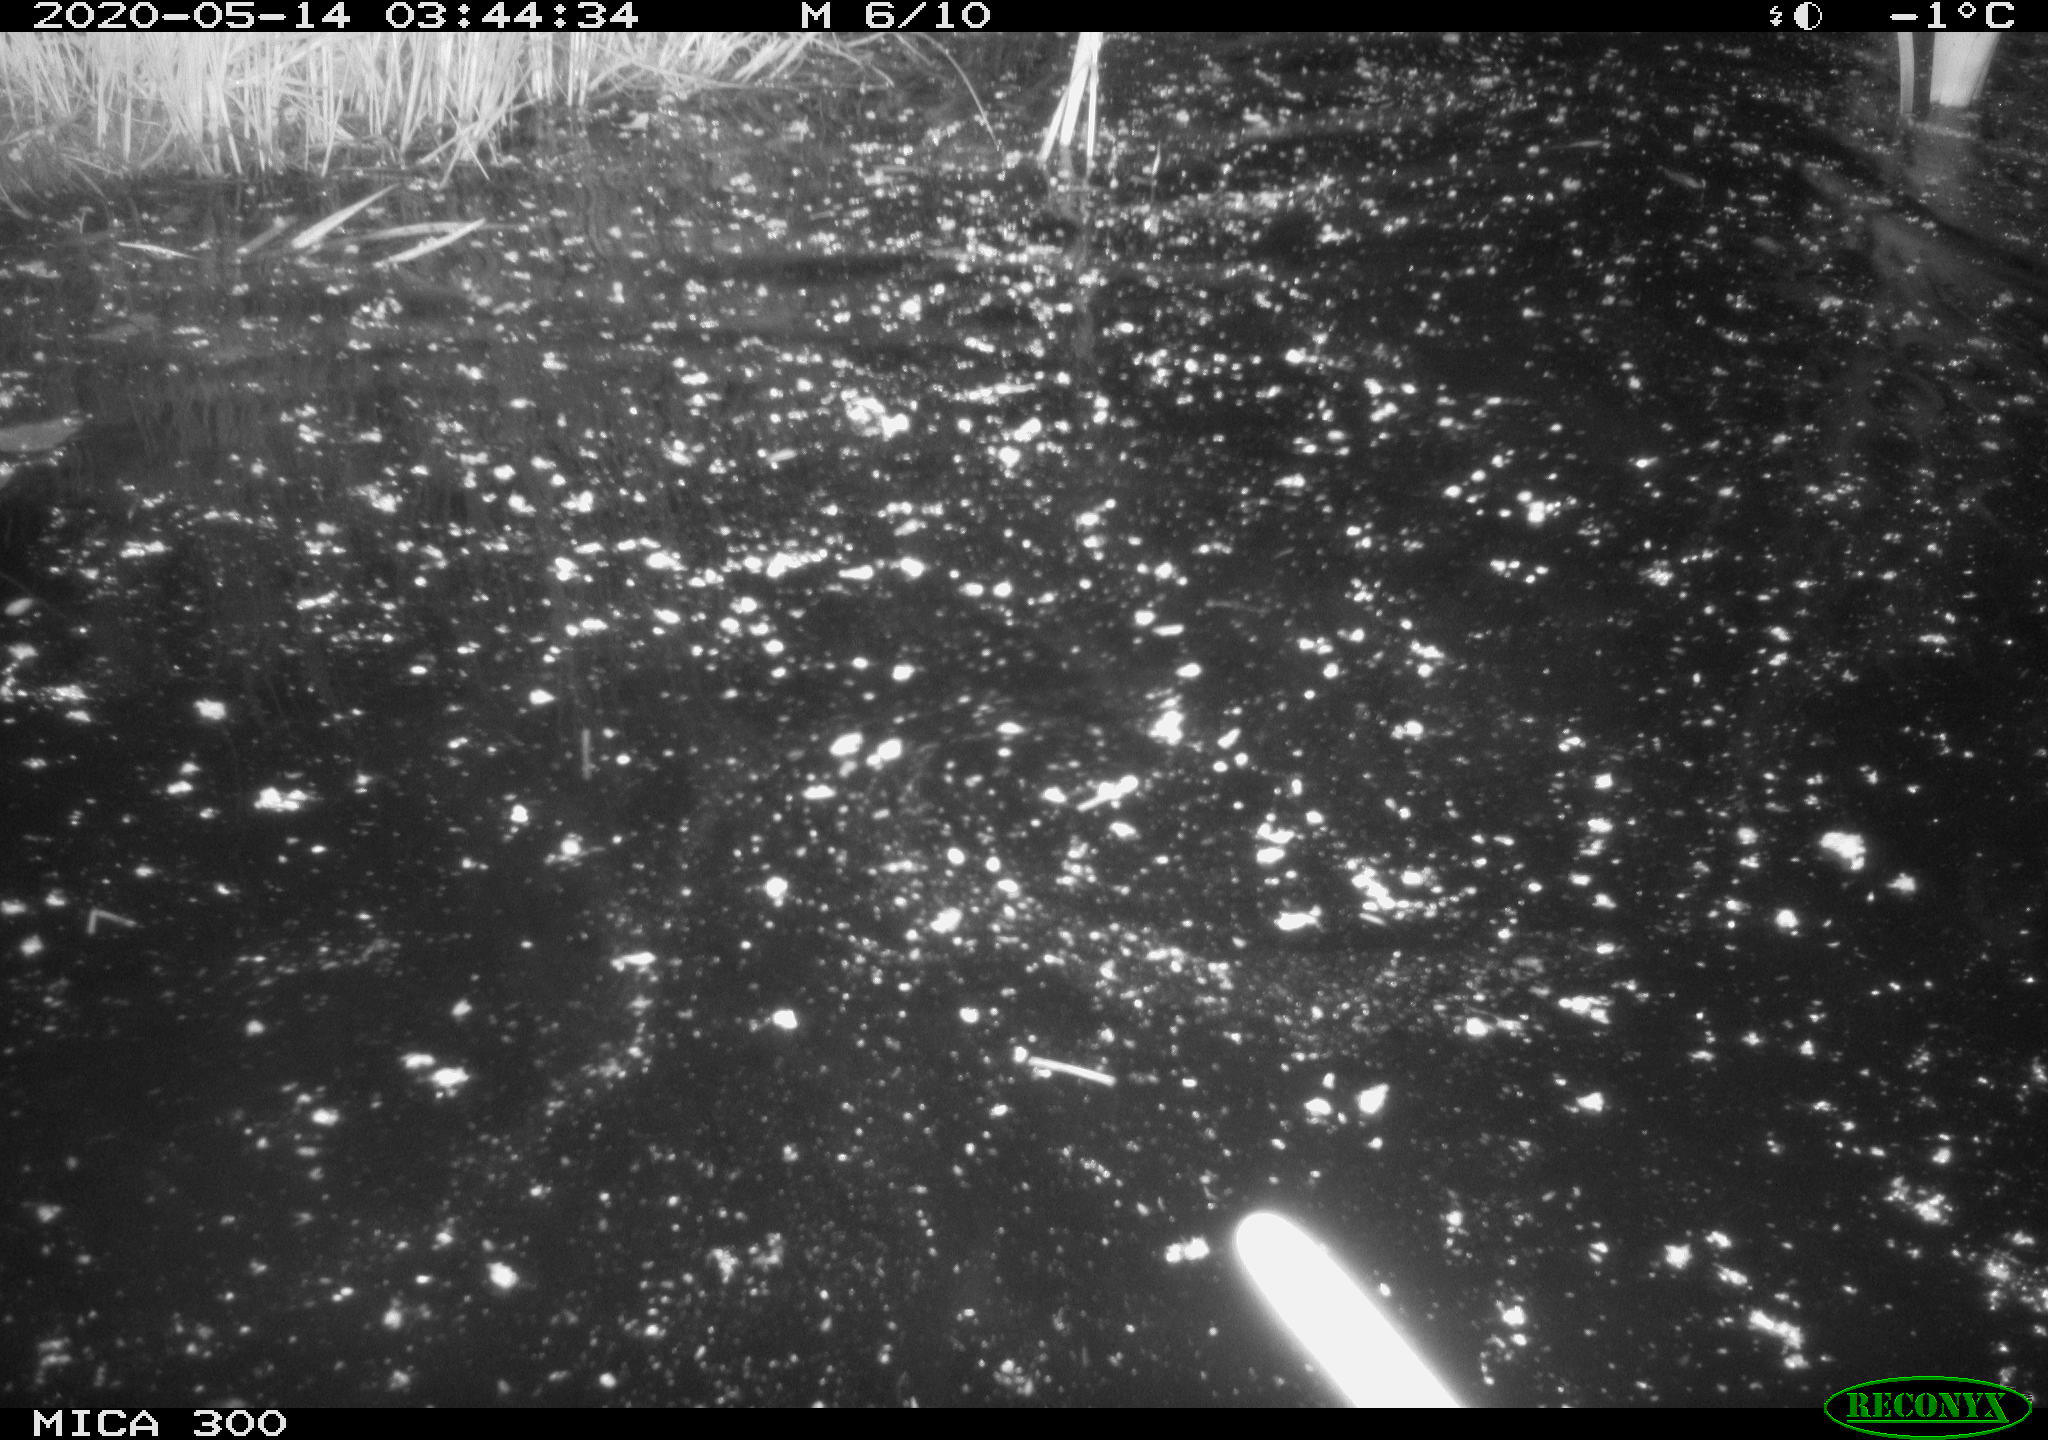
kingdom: Animalia
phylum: Chordata
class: Mammalia
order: Rodentia
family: Castoridae
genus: Castor
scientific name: Castor fiber
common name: Eurasian beaver
